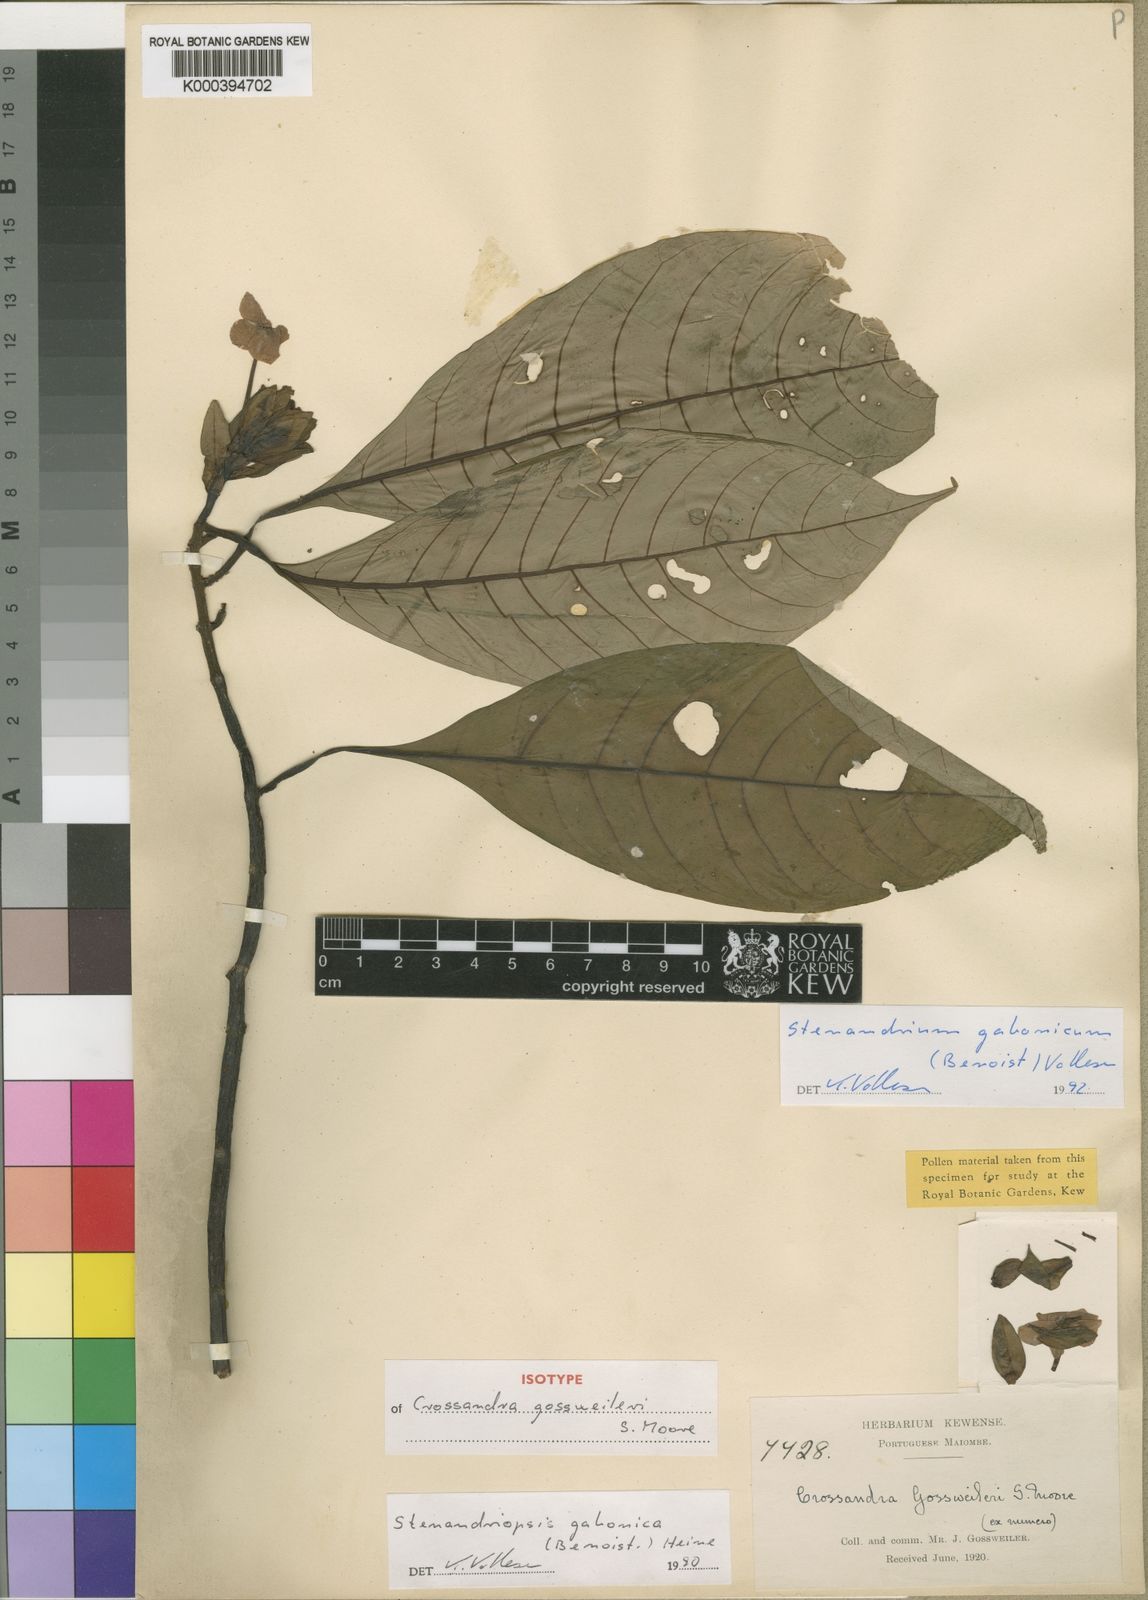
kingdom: Plantae
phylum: Tracheophyta
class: Magnoliopsida
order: Lamiales
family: Acanthaceae
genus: Stenandriopsis
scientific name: Stenandriopsis gabonica
